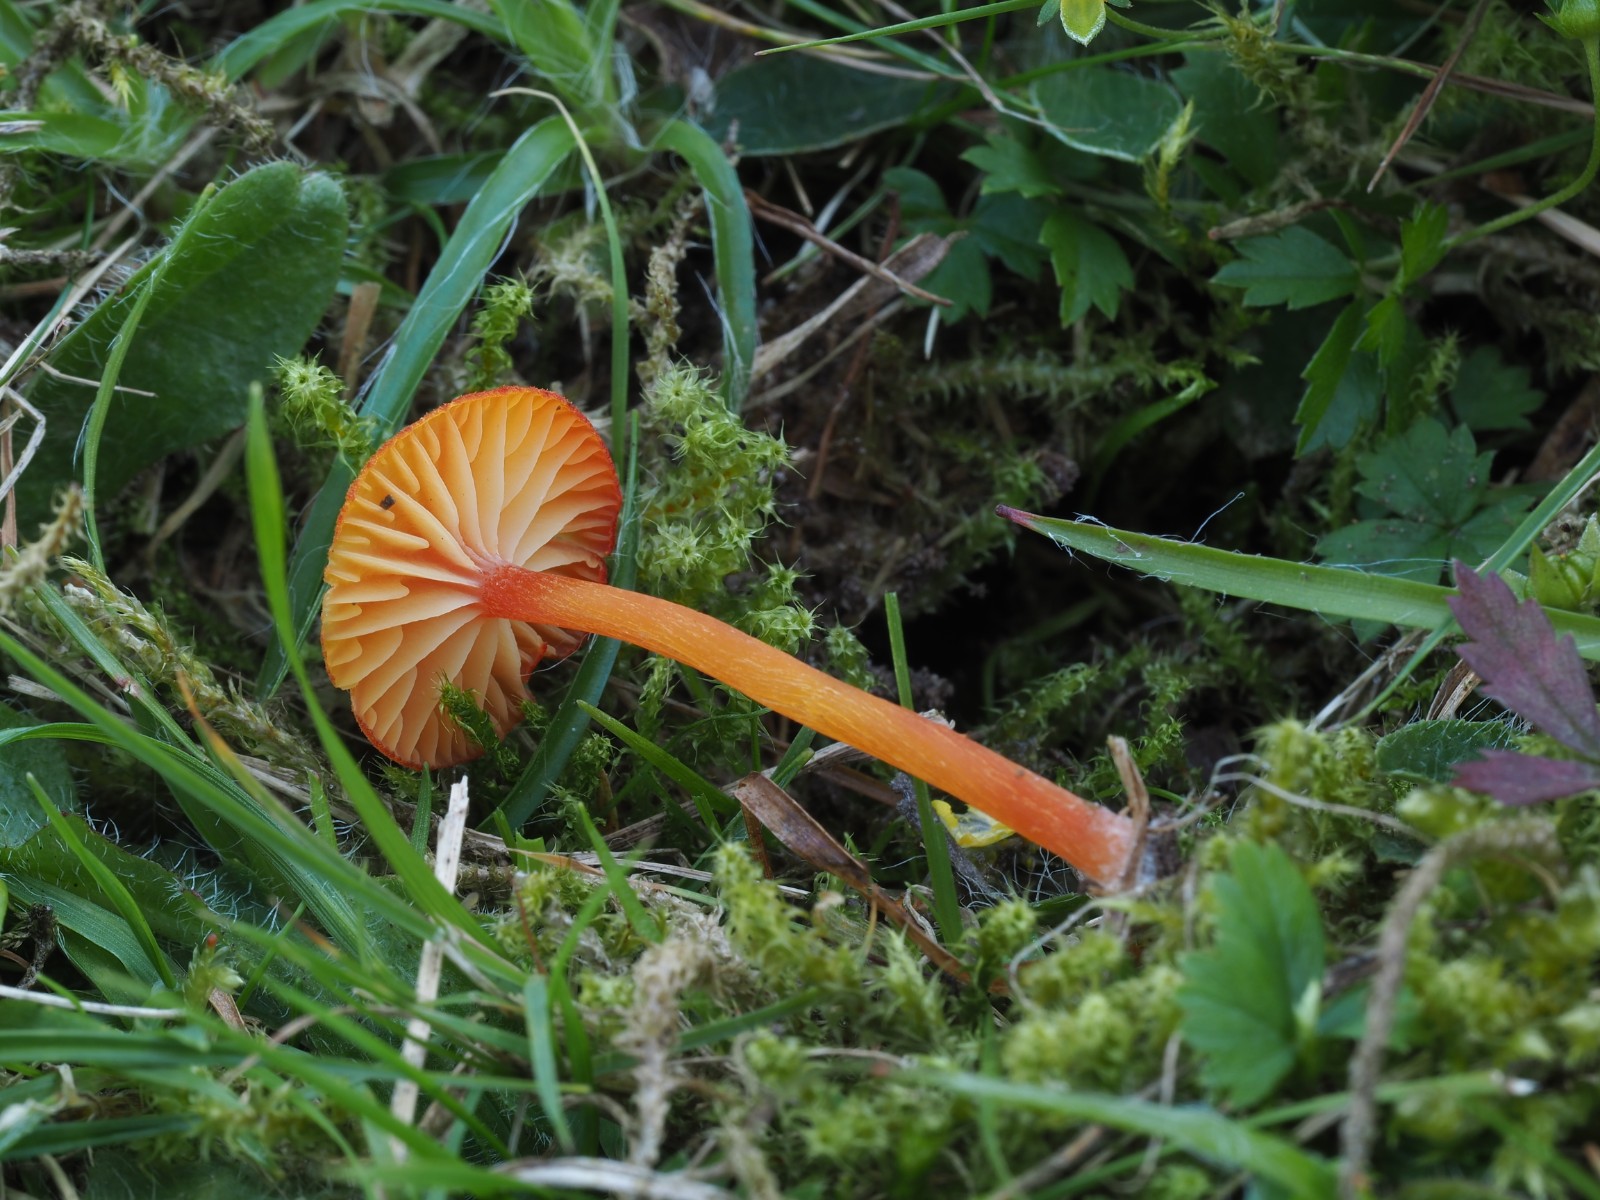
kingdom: Fungi
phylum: Basidiomycota
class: Agaricomycetes
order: Agaricales
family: Hygrophoraceae
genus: Hygrocybe
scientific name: Hygrocybe miniata
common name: mønje-vokshat
